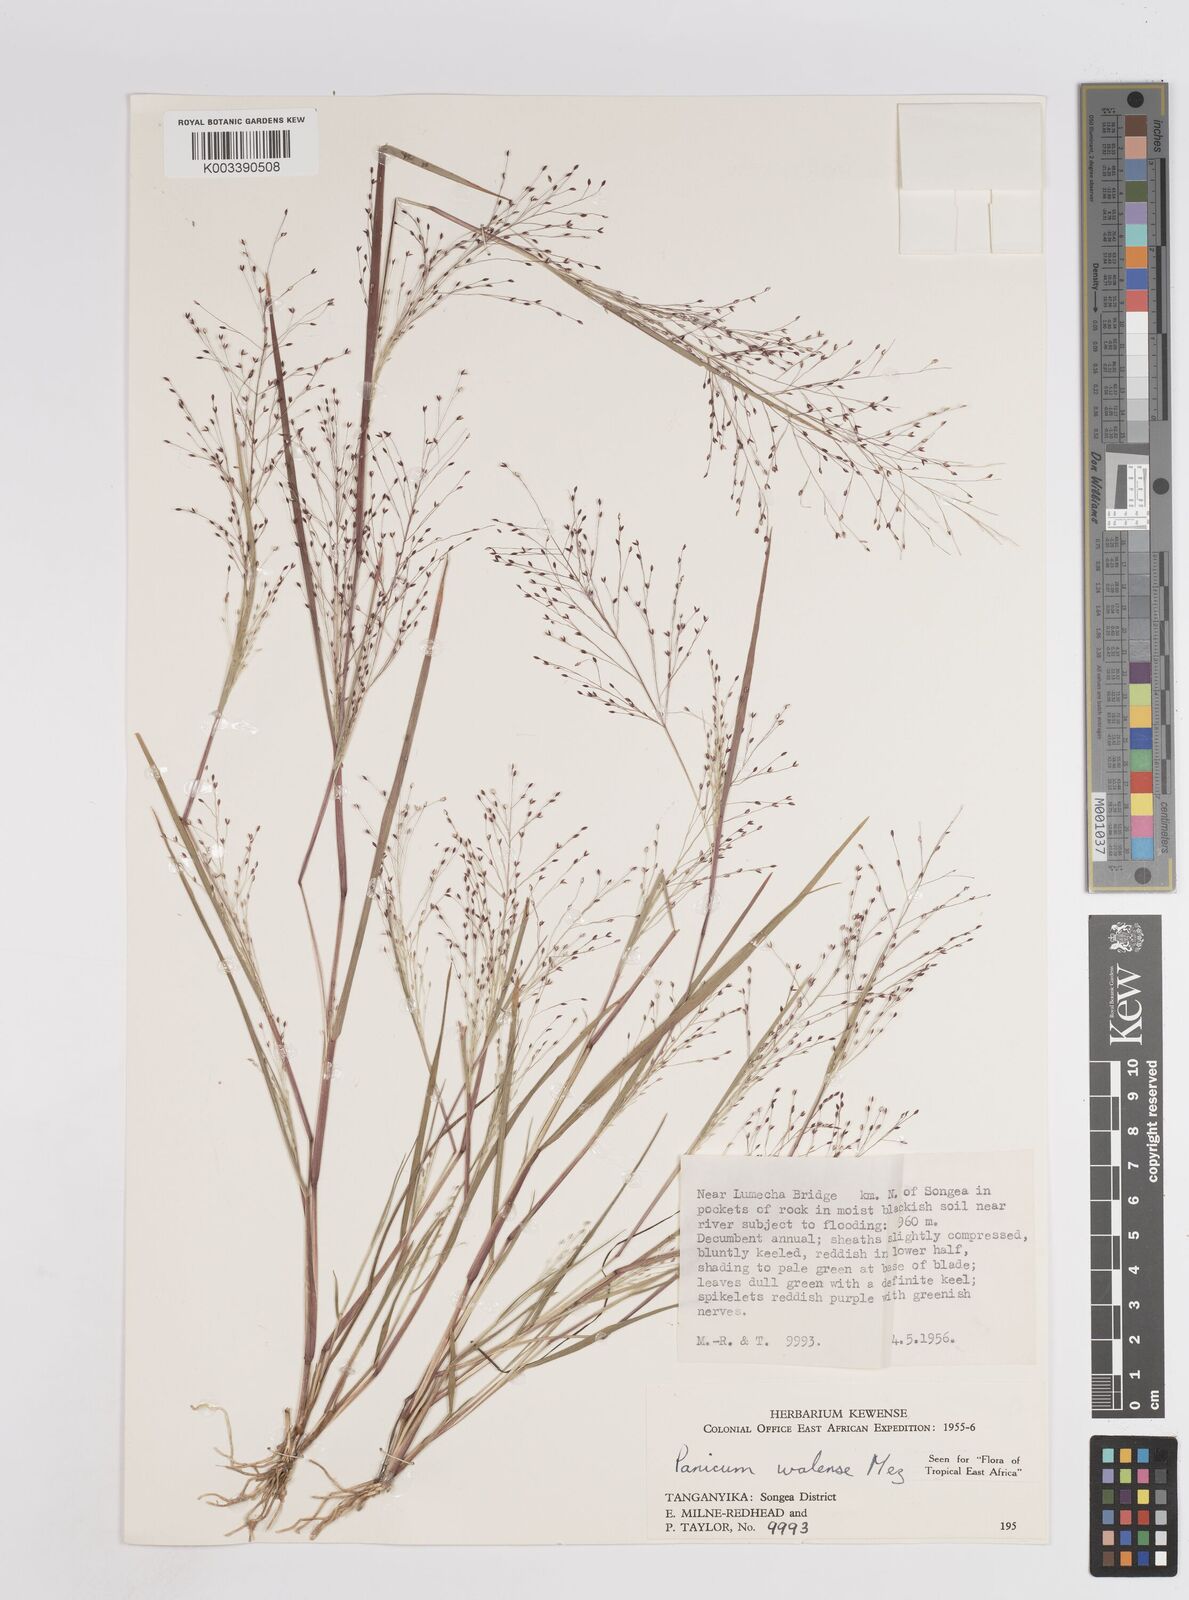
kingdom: Plantae
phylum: Tracheophyta
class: Liliopsida
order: Poales
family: Poaceae
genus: Panicum
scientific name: Panicum humile
